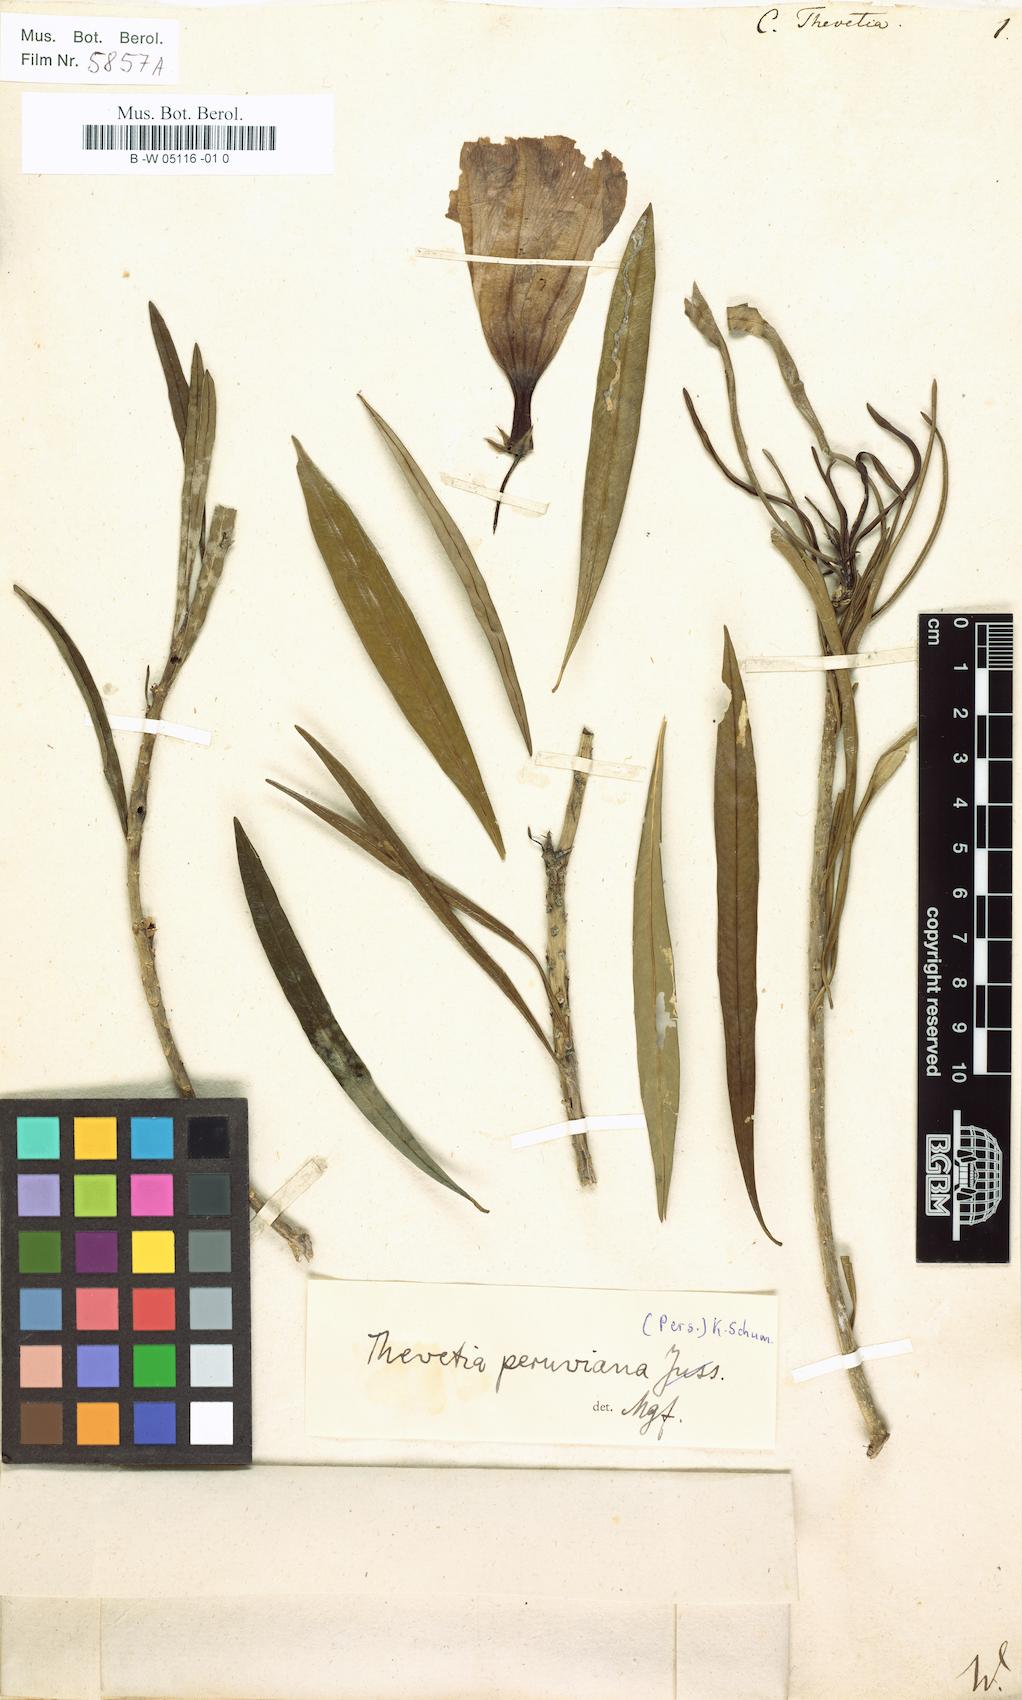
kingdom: Plantae
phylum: Tracheophyta
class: Magnoliopsida
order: Gentianales
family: Apocynaceae
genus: Cascabela
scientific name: Cascabela thevetia
